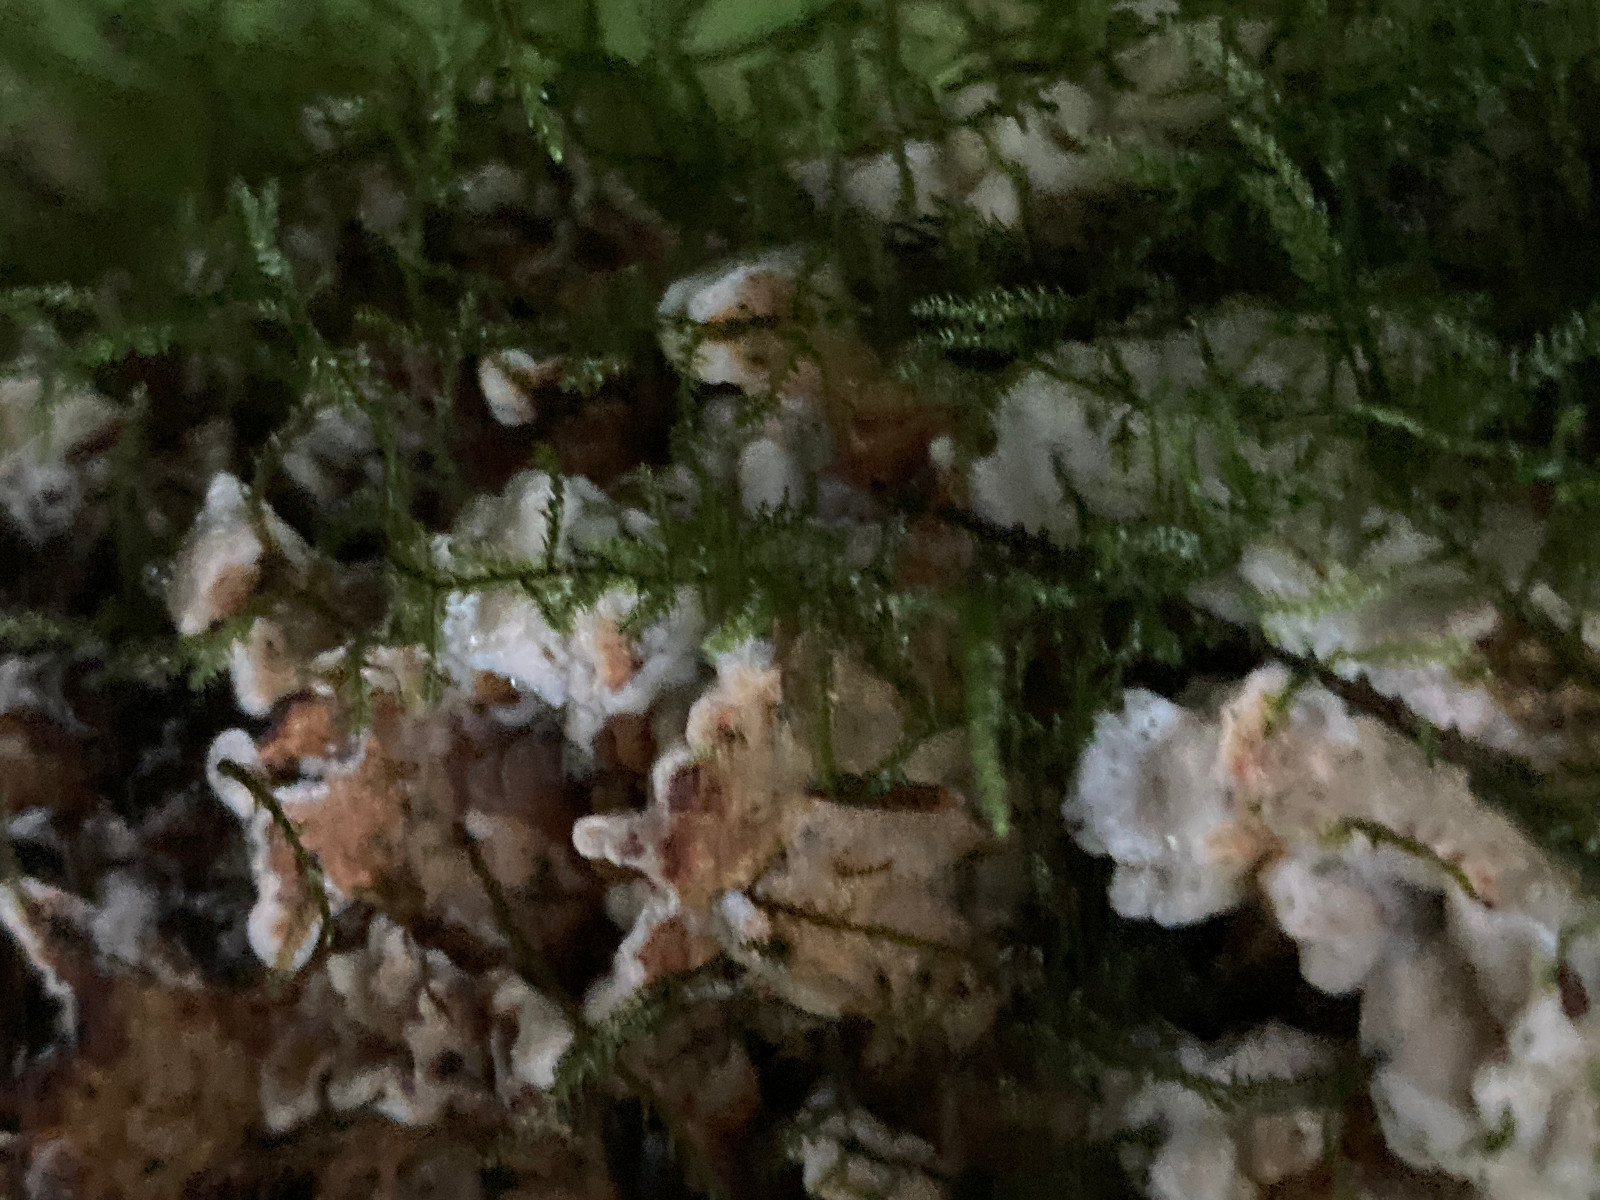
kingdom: Fungi
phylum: Basidiomycota
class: Agaricomycetes
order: Boletales
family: Serpulaceae
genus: Serpula
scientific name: Serpula himantioides
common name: tyndkødet hussvamp
